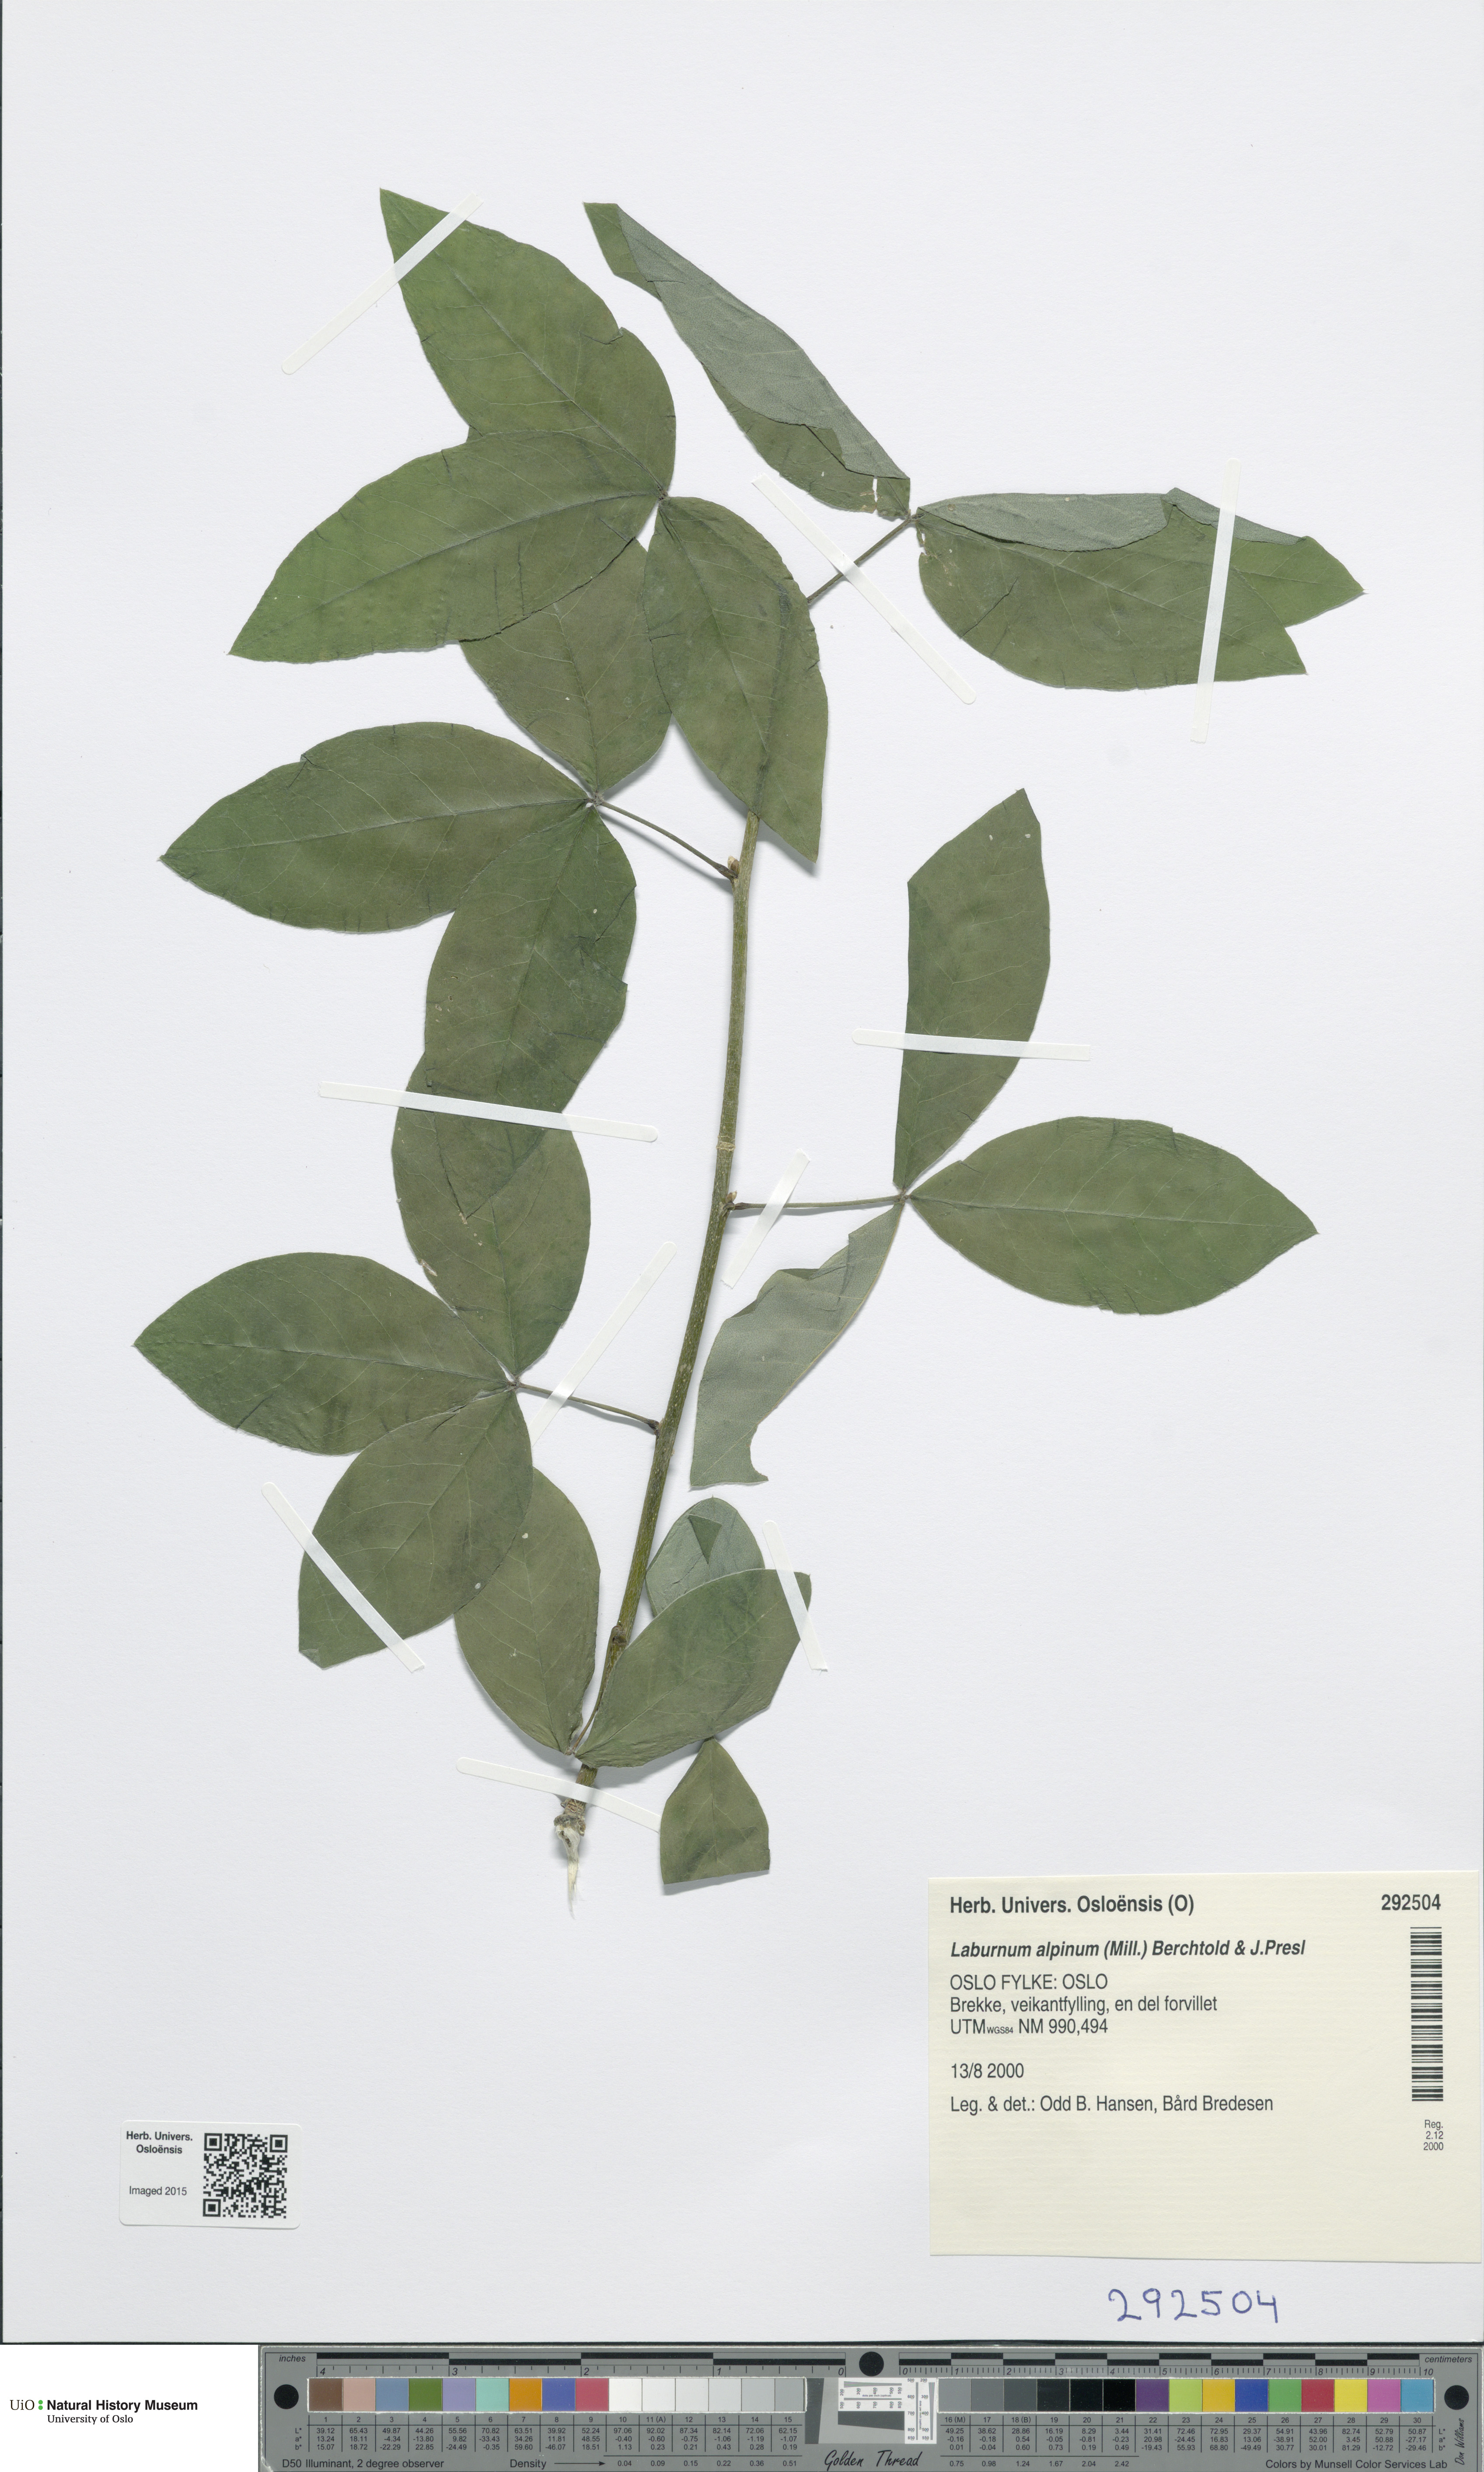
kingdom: Plantae
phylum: Tracheophyta
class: Magnoliopsida
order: Fabales
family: Fabaceae
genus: Laburnum
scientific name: Laburnum alpinum
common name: Scottish laburnum
